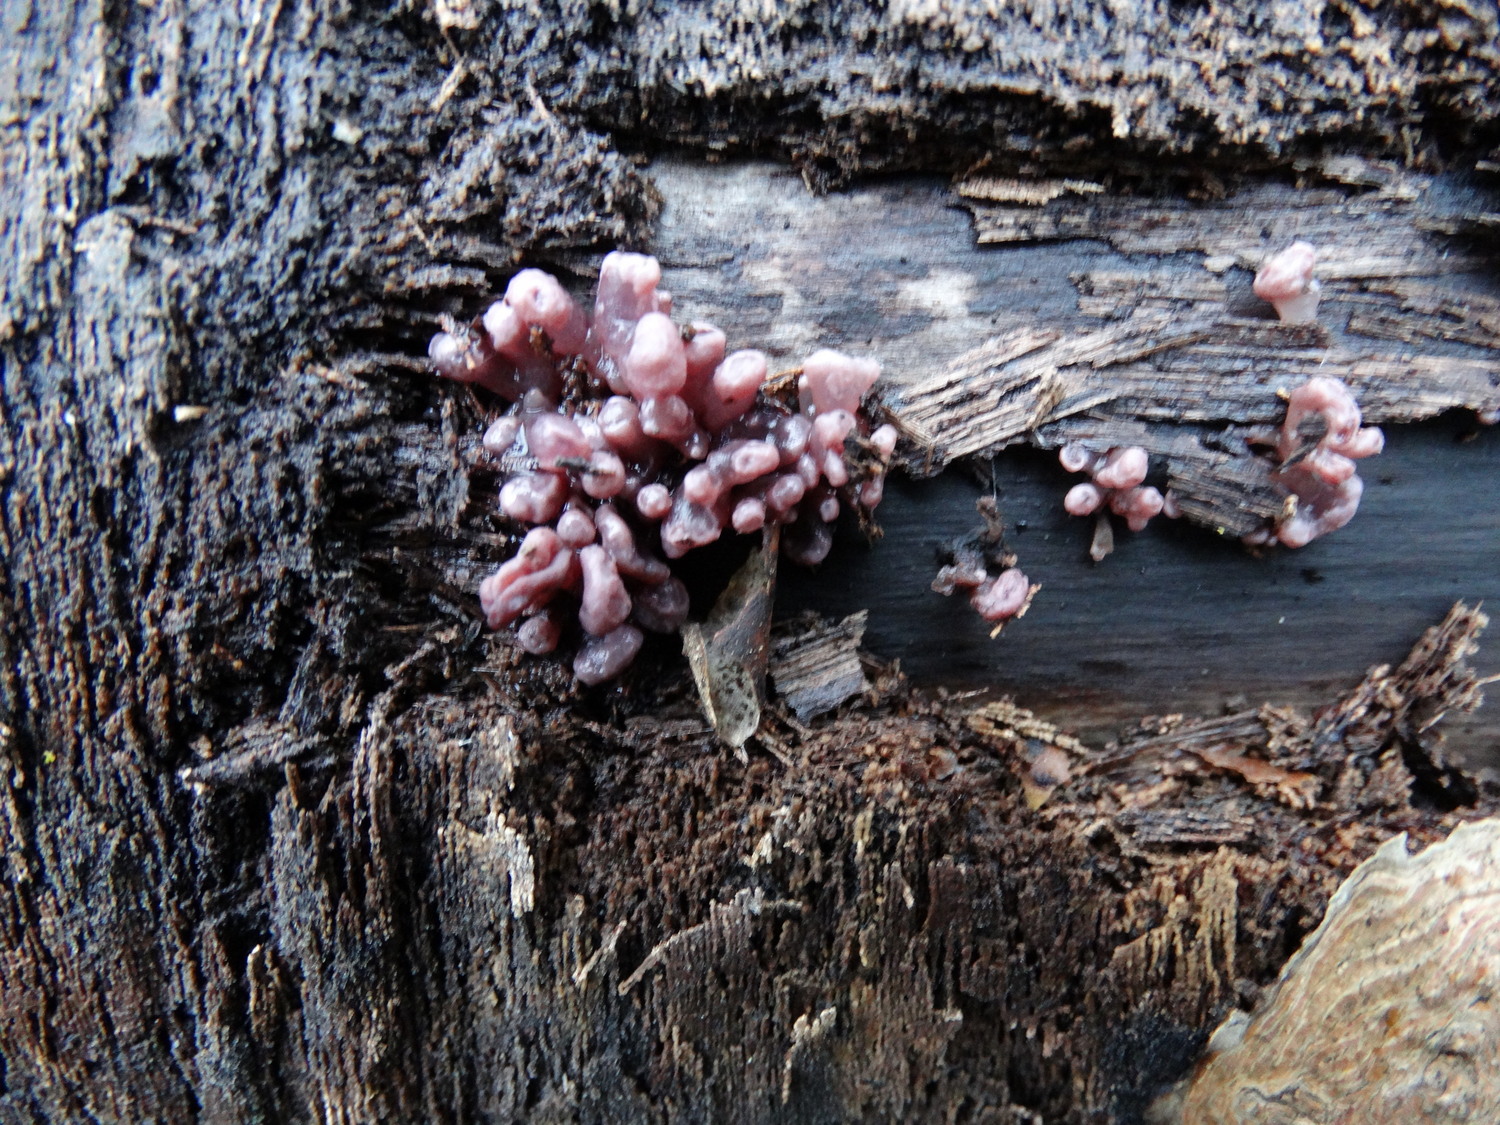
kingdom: Fungi
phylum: Ascomycota
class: Leotiomycetes
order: Helotiales
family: Gelatinodiscaceae
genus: Ascocoryne
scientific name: Ascocoryne sarcoides
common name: rødlilla sejskive
